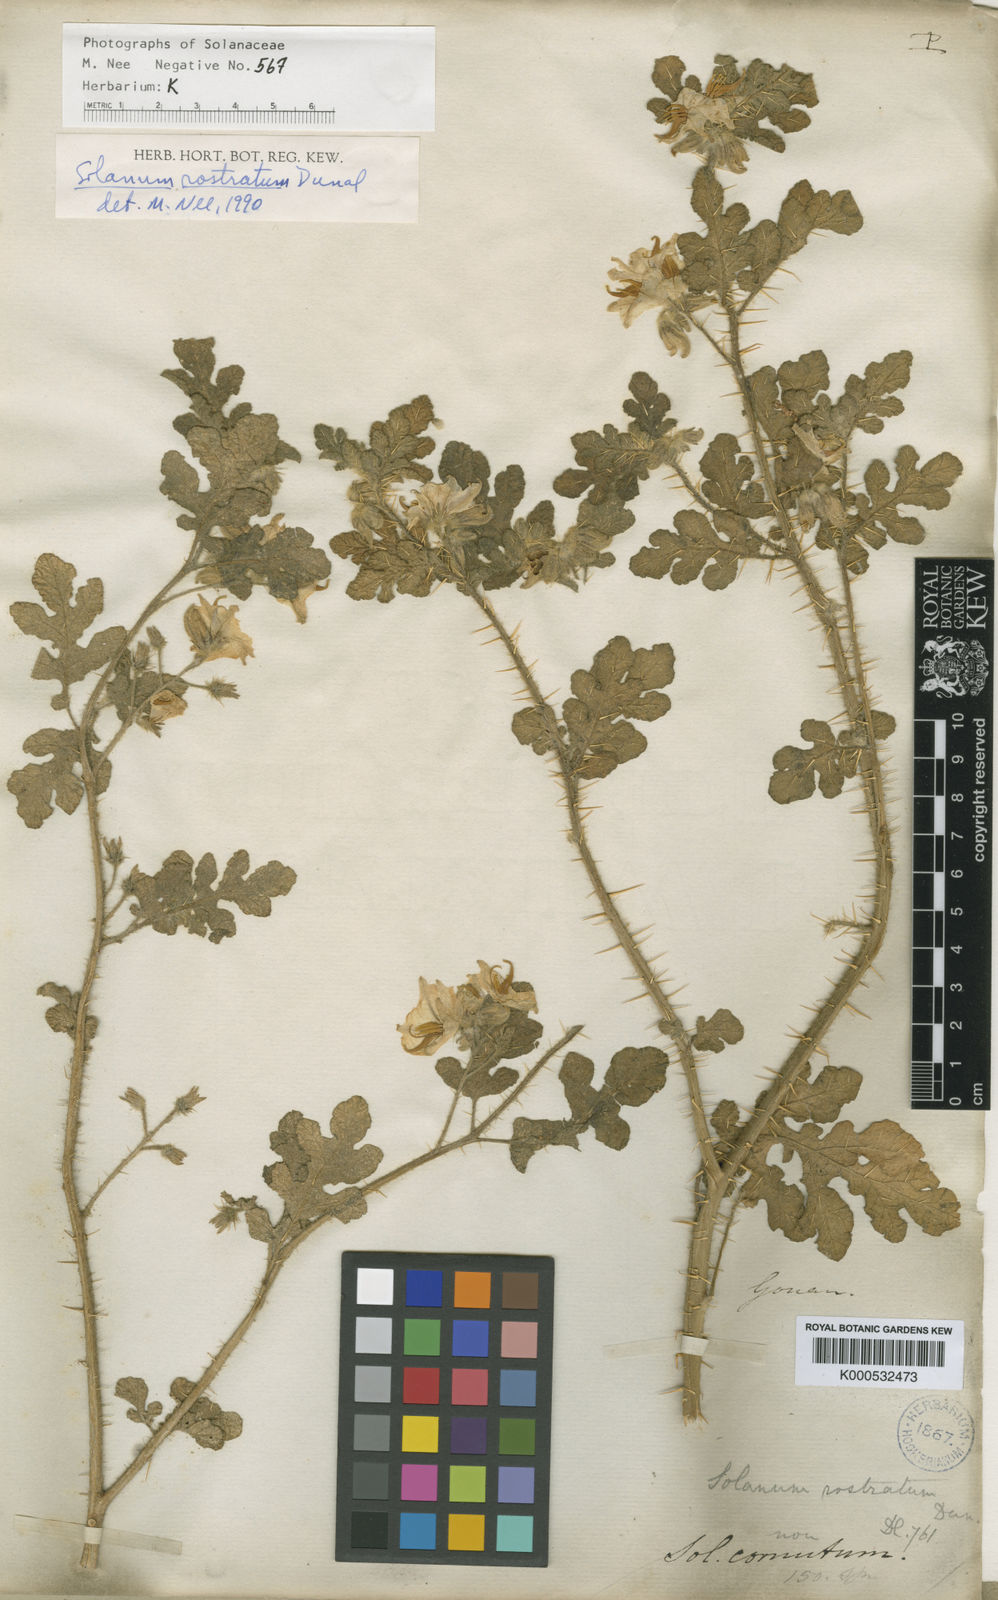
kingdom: Plantae
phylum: Tracheophyta
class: Magnoliopsida
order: Solanales
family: Solanaceae
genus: Solanum
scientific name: Solanum angustifolium
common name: Buffalobur nightshade
